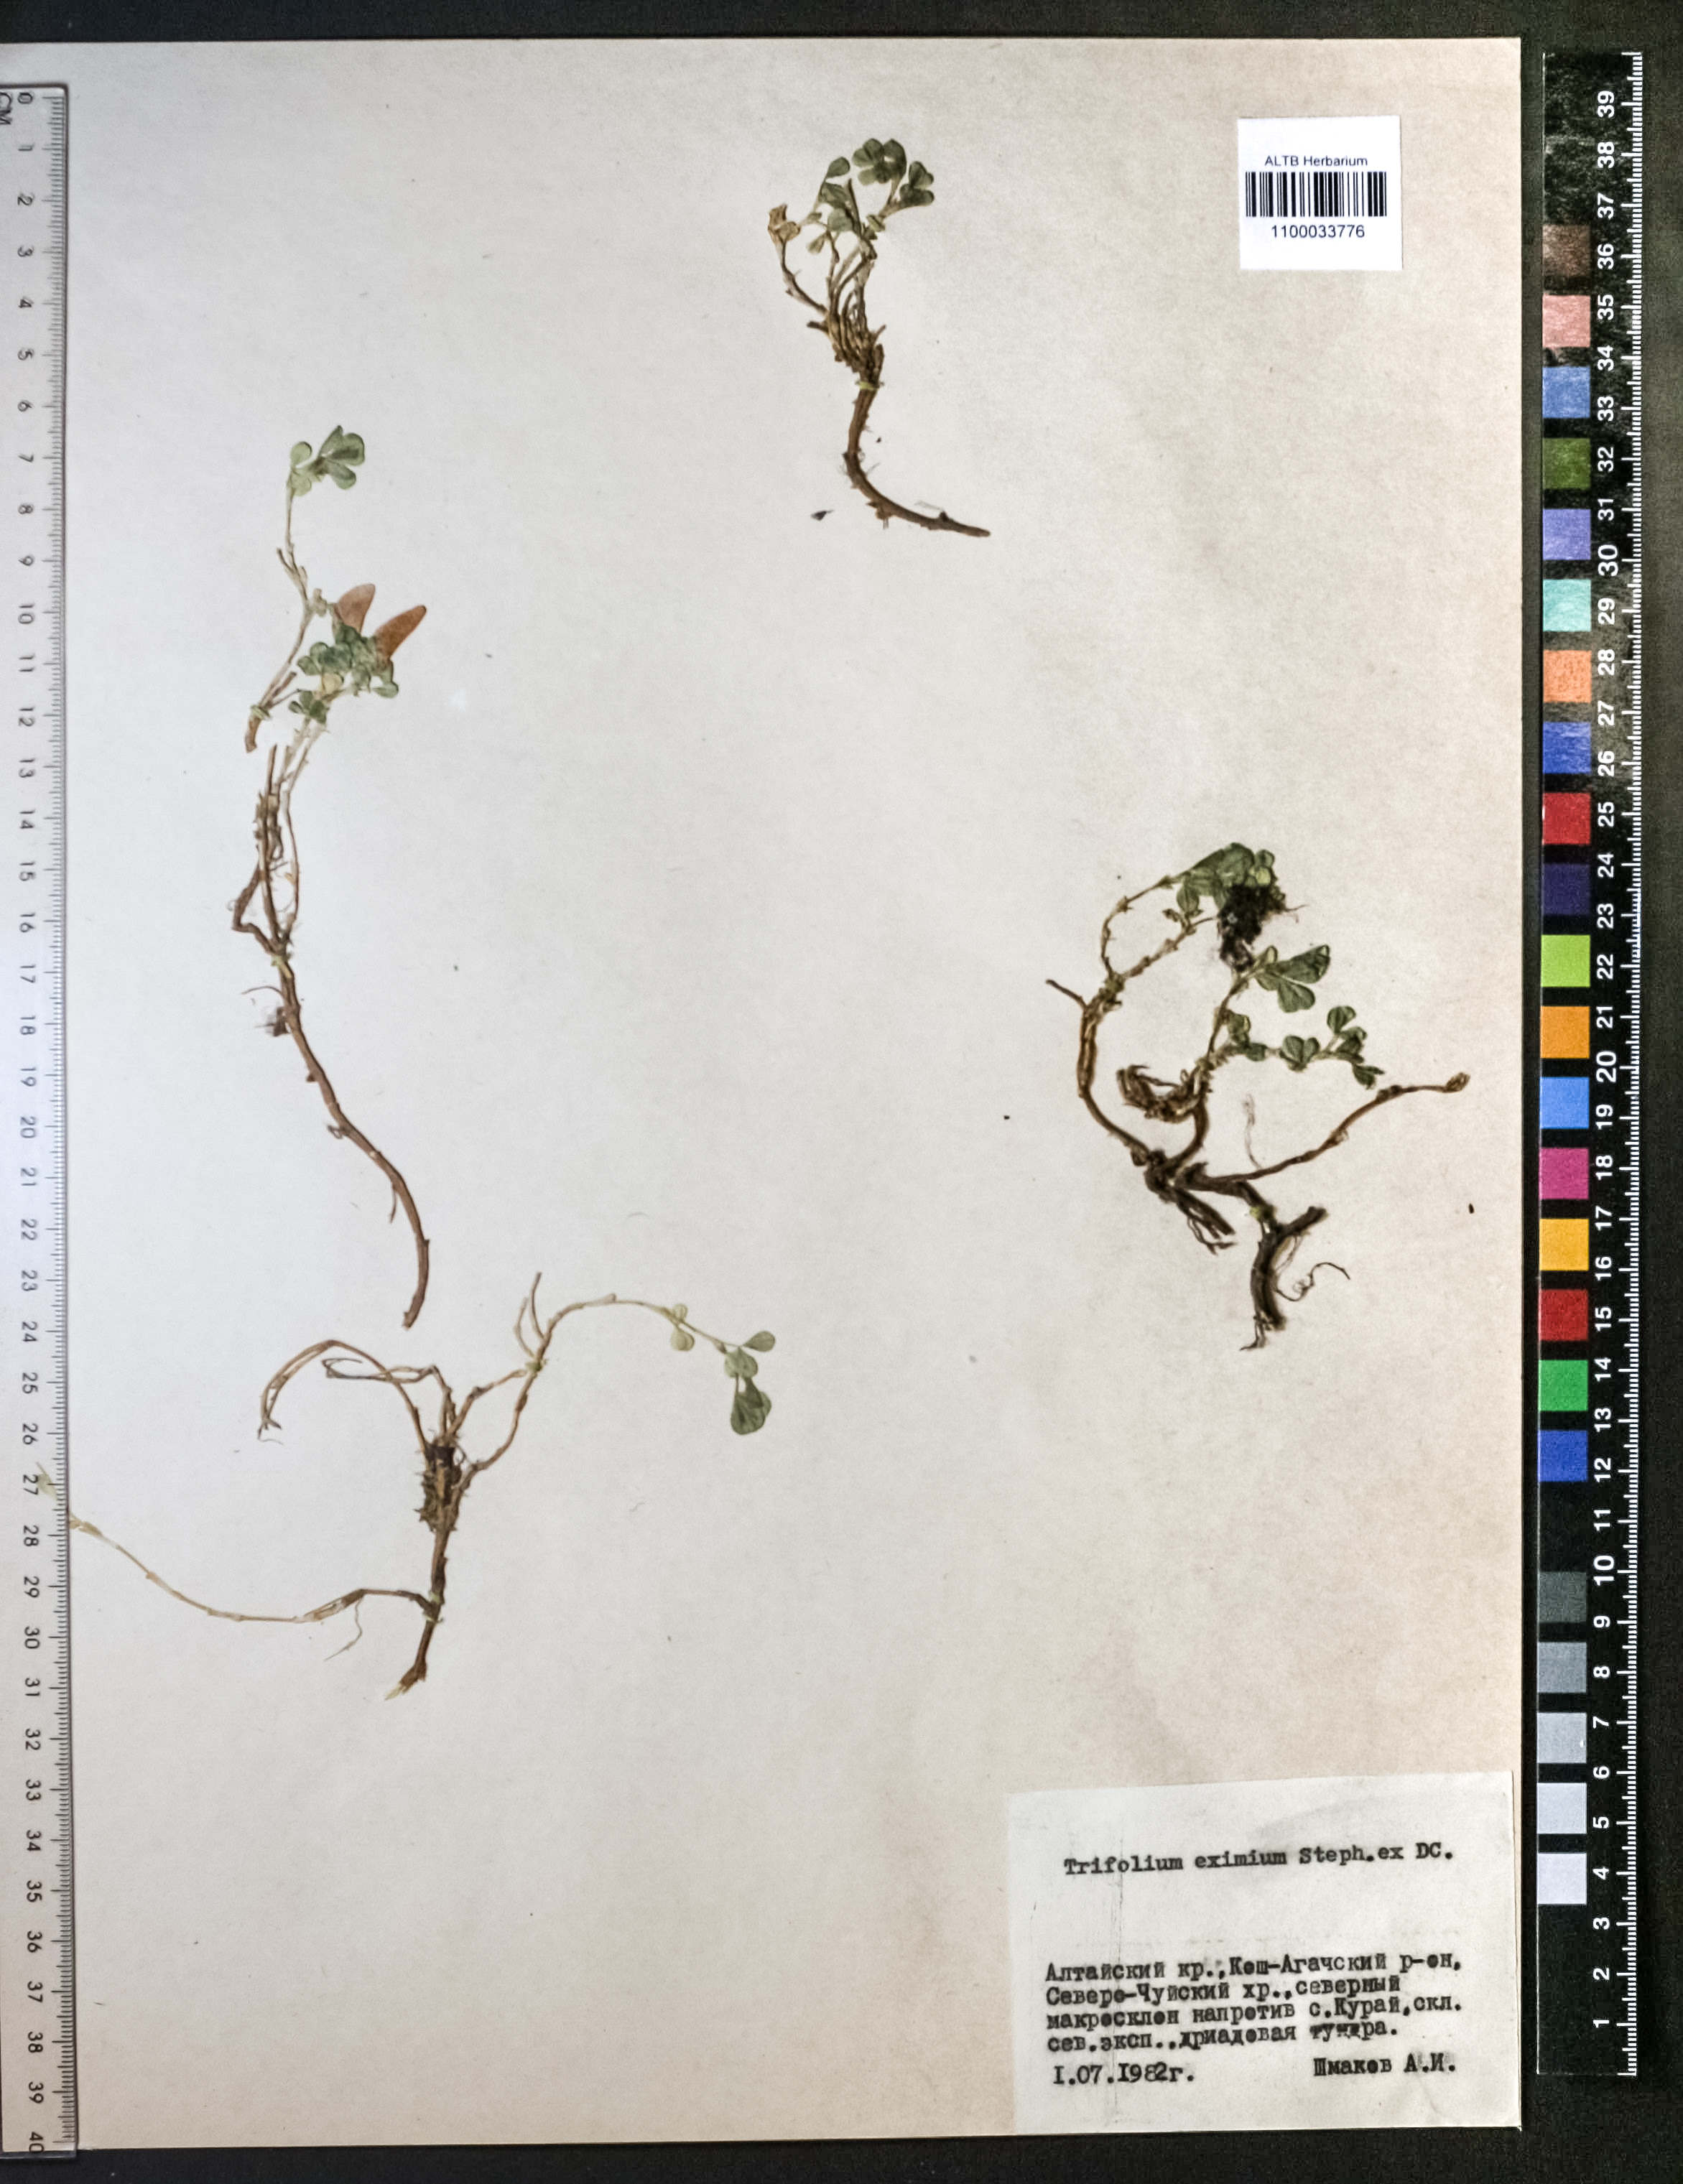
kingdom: Plantae
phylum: Tracheophyta
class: Magnoliopsida
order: Fabales
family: Fabaceae
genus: Trifolium
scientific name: Trifolium eximium
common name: Excellent clover
